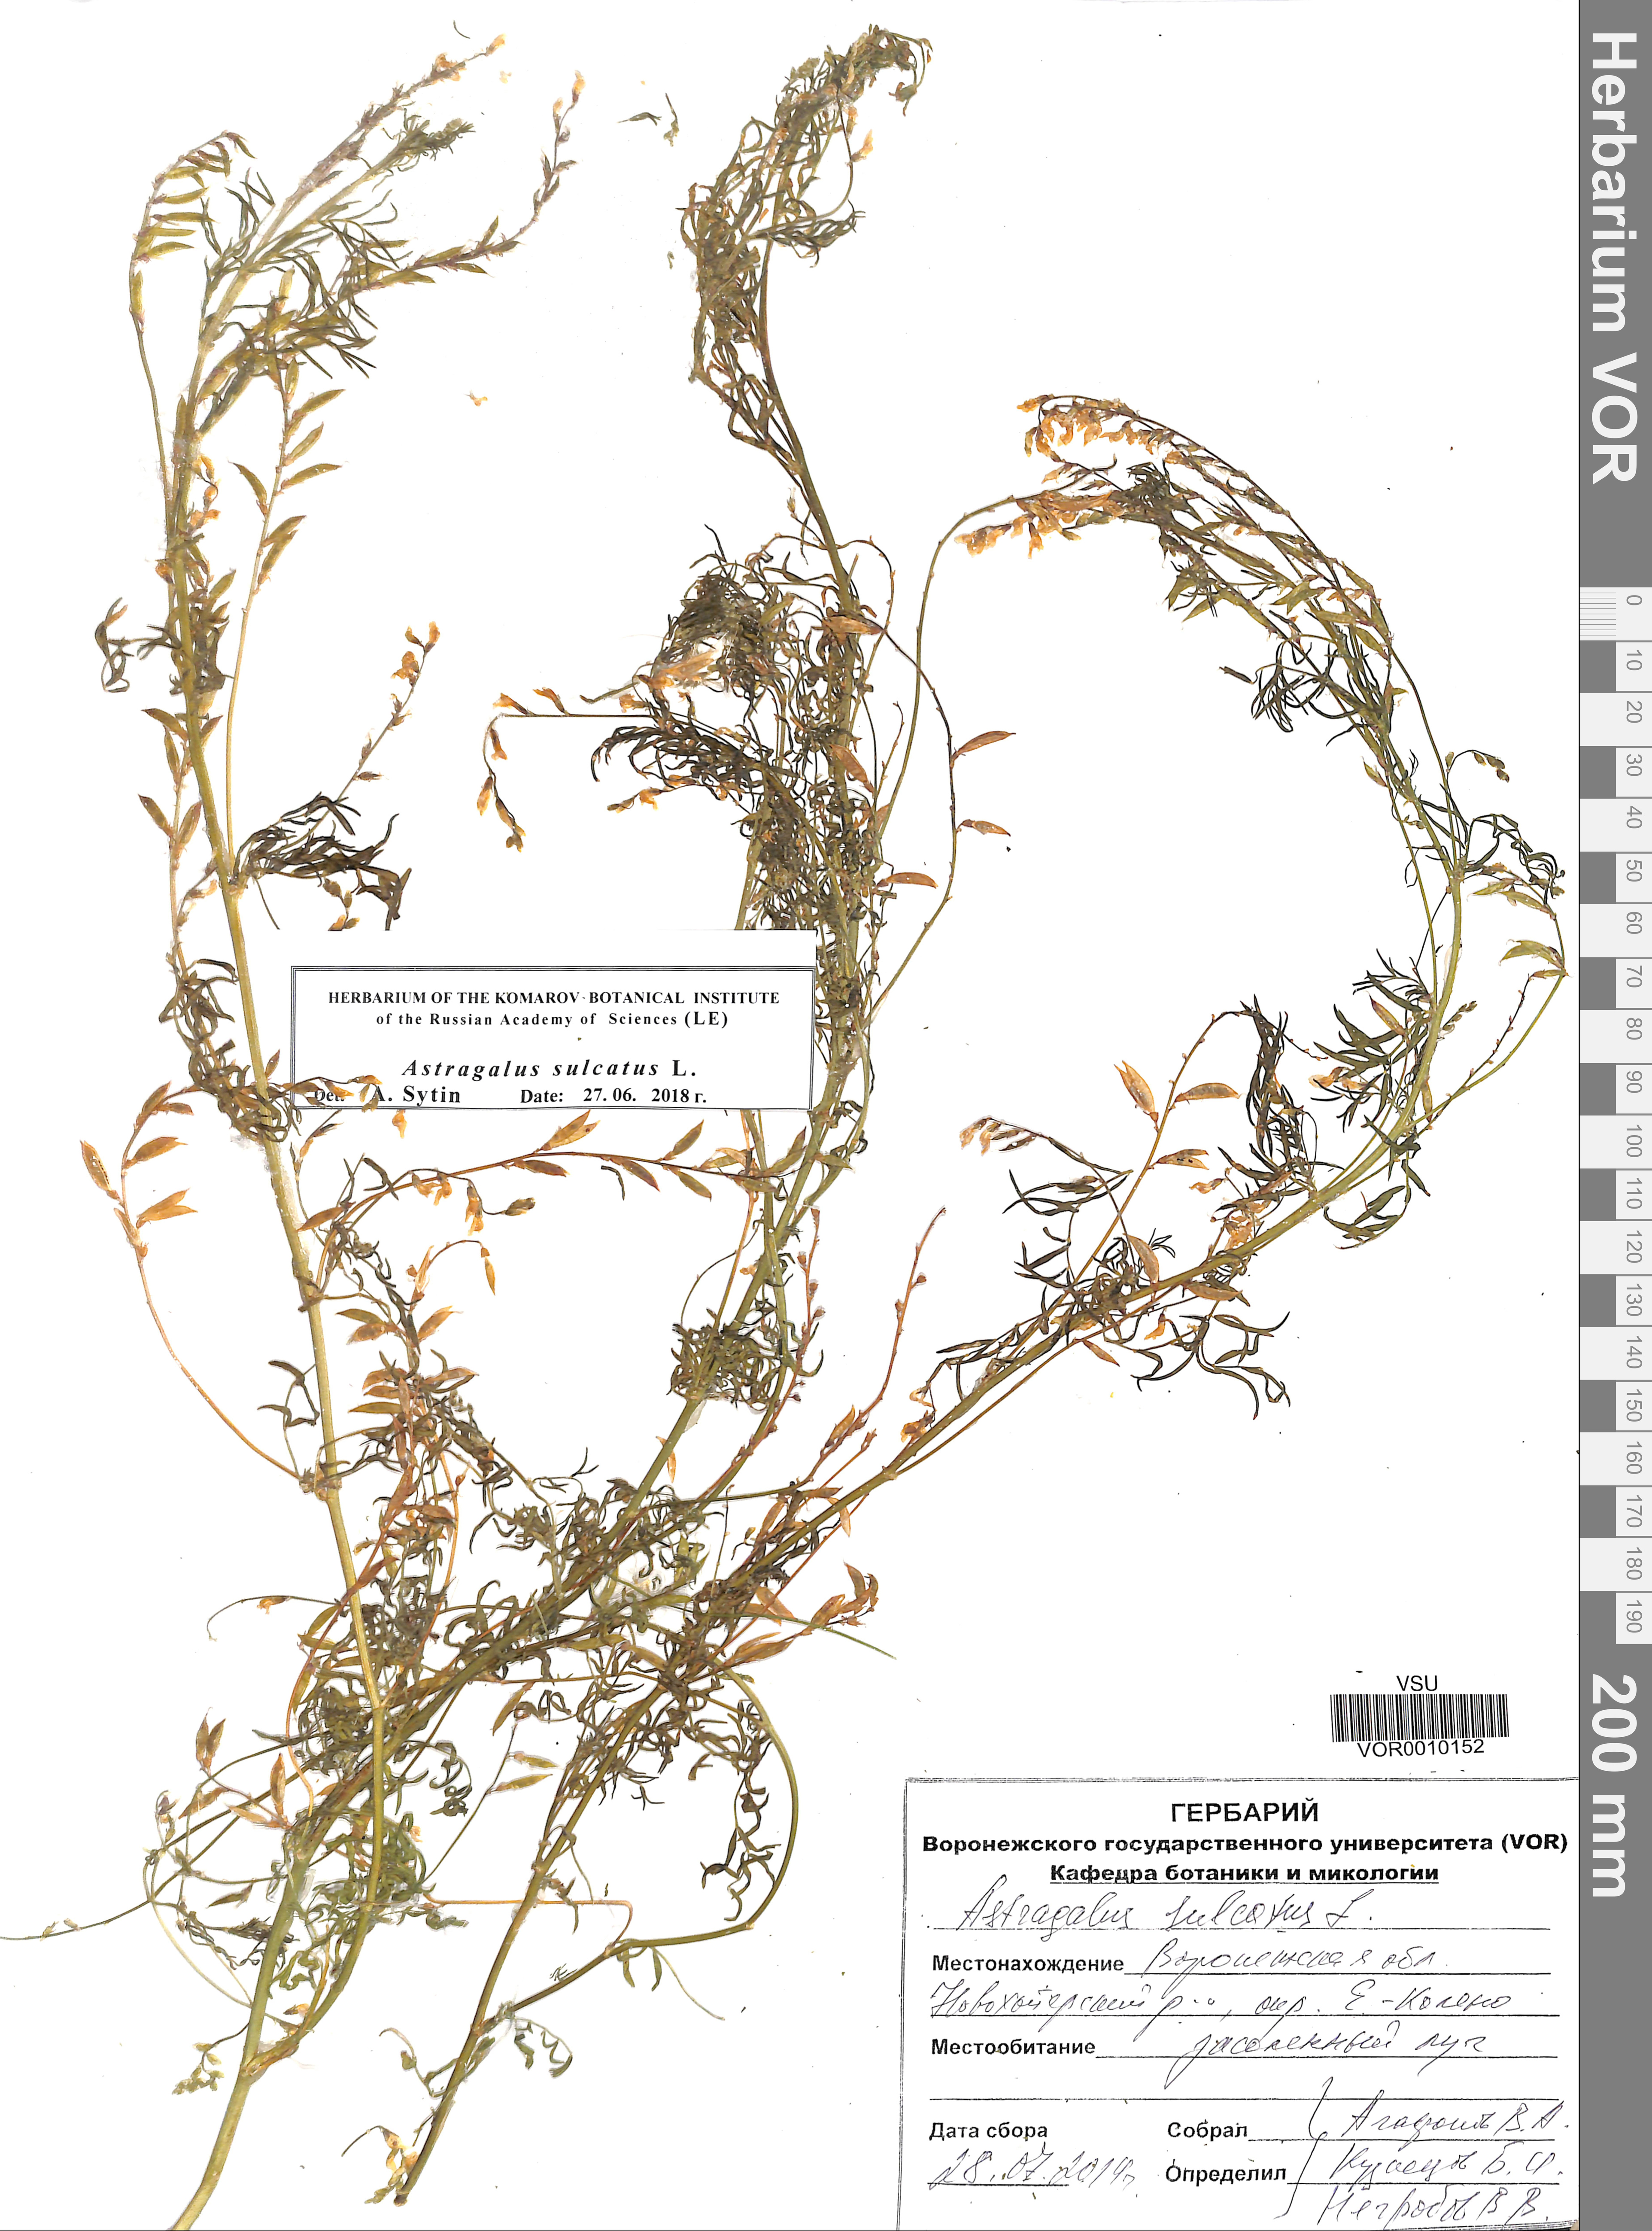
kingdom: Plantae
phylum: Tracheophyta
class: Magnoliopsida
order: Fabales
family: Fabaceae
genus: Astragalus
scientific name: Astragalus sulcatus
